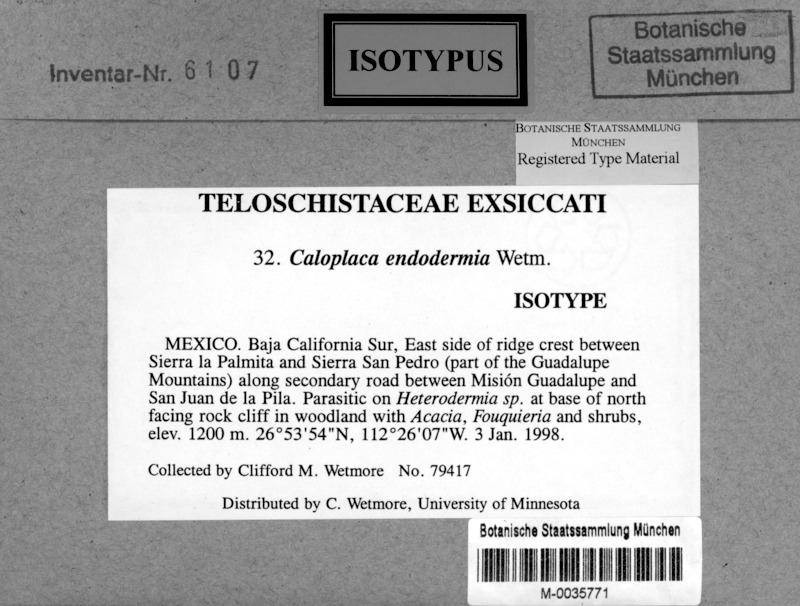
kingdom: Fungi
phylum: Ascomycota
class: Lecanoromycetes
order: Teloschistales
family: Teloschistaceae
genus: Caloplaca
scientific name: Caloplaca endodermia
